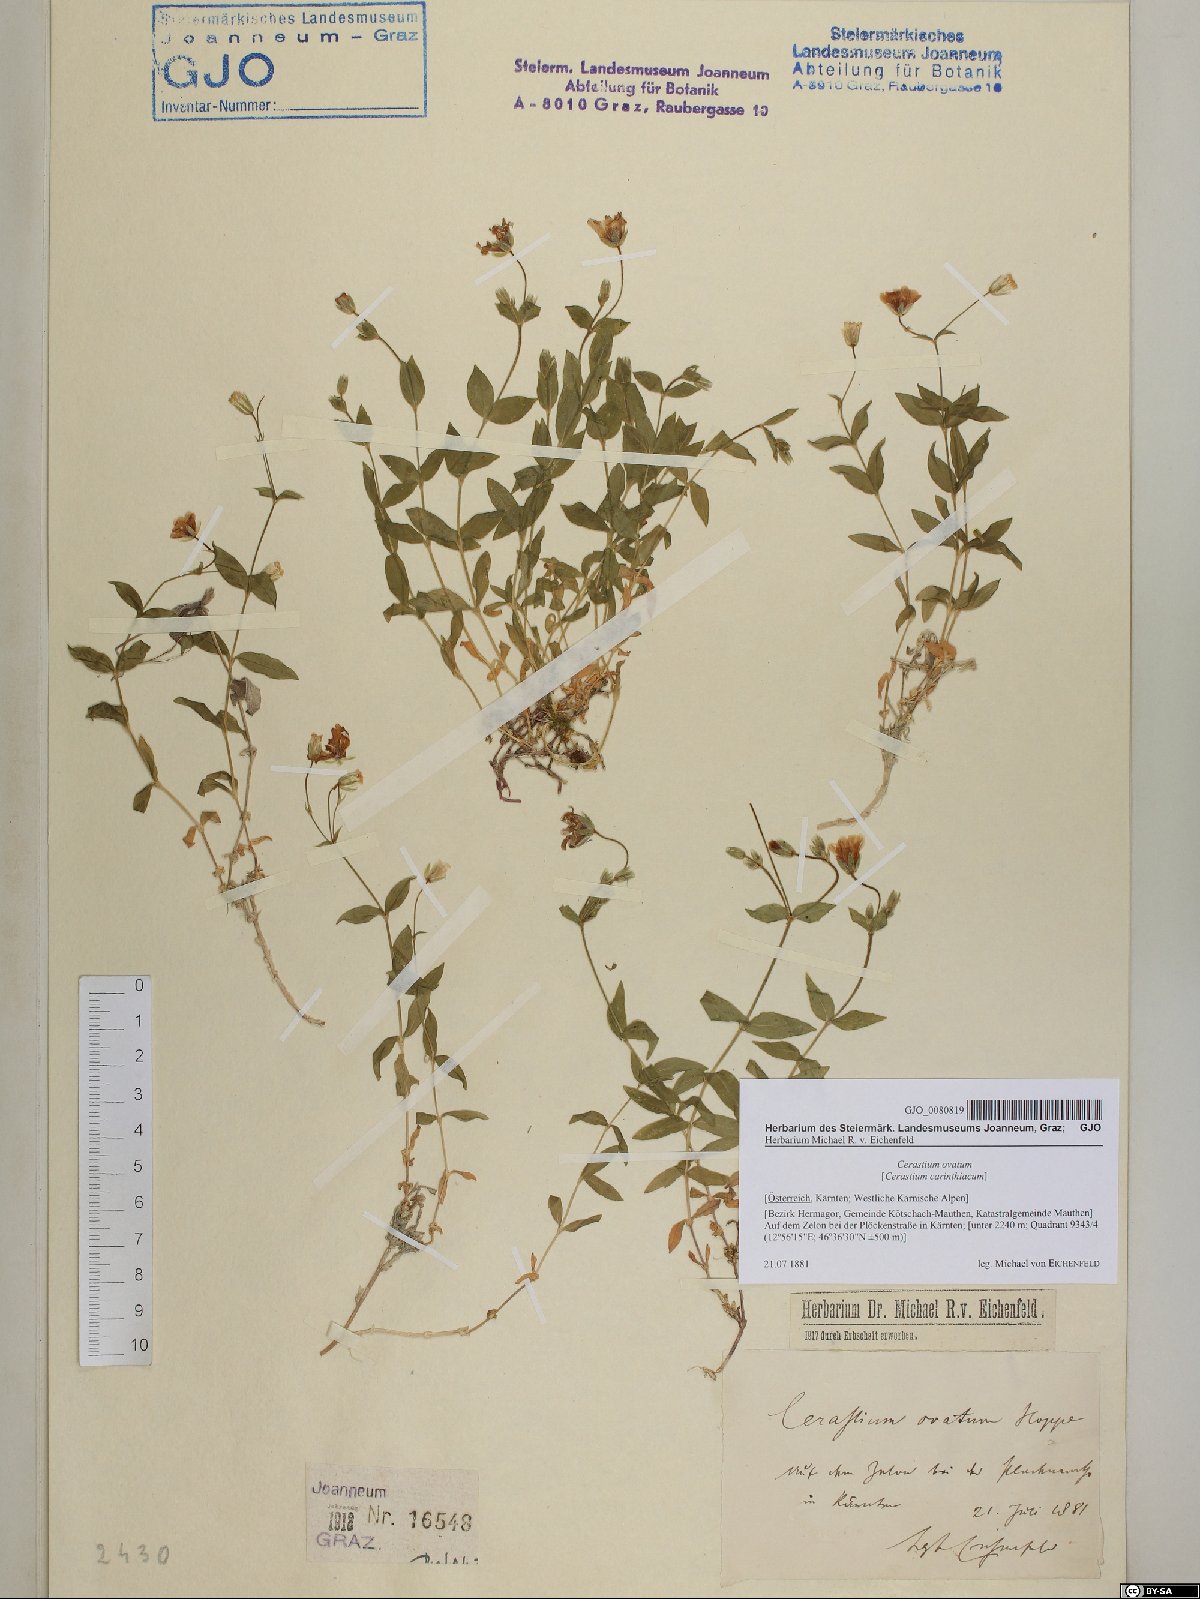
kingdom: Plantae
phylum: Tracheophyta
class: Magnoliopsida
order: Caryophyllales
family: Caryophyllaceae
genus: Cerastium
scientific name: Cerastium arvense
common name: Field mouse-ear
